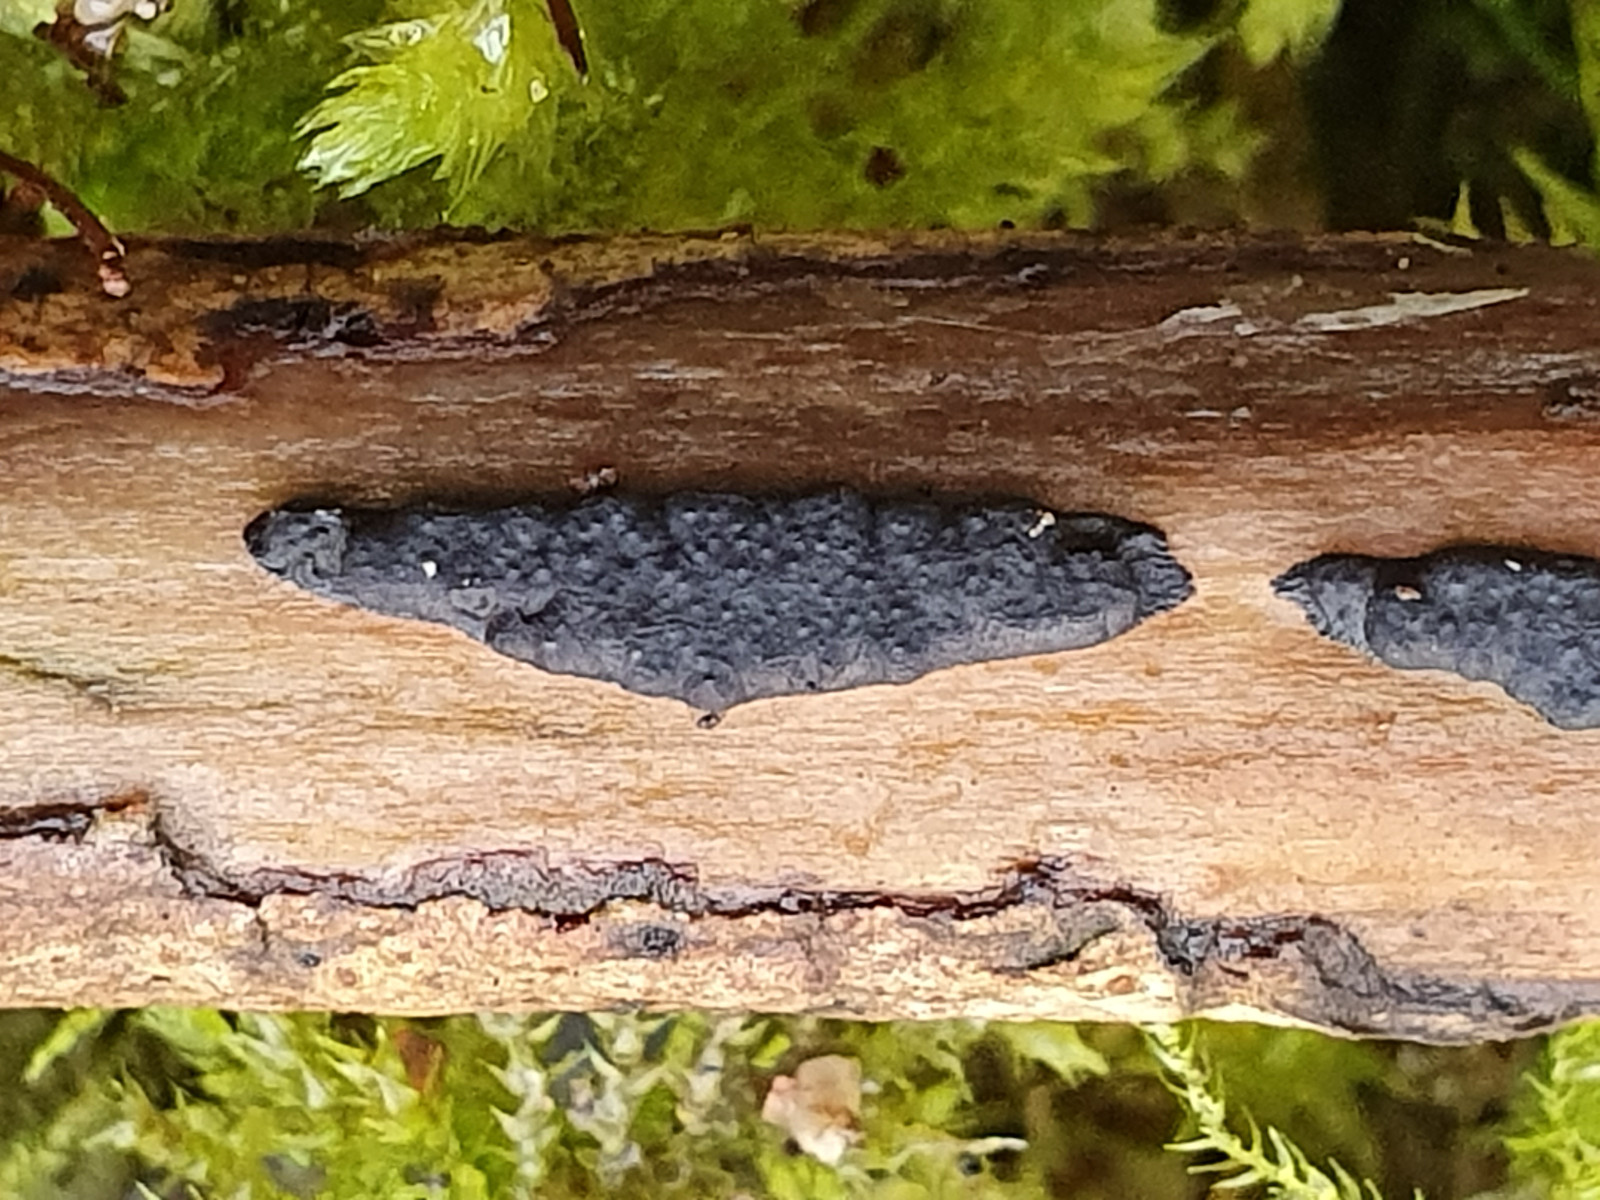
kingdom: Fungi
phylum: Ascomycota
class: Sordariomycetes
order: Xylariales
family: Xylariaceae
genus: Nemania
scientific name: Nemania
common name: kuldyne
